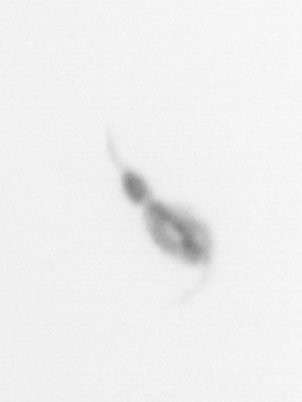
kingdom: Animalia
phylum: Arthropoda
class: Copepoda
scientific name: Copepoda
